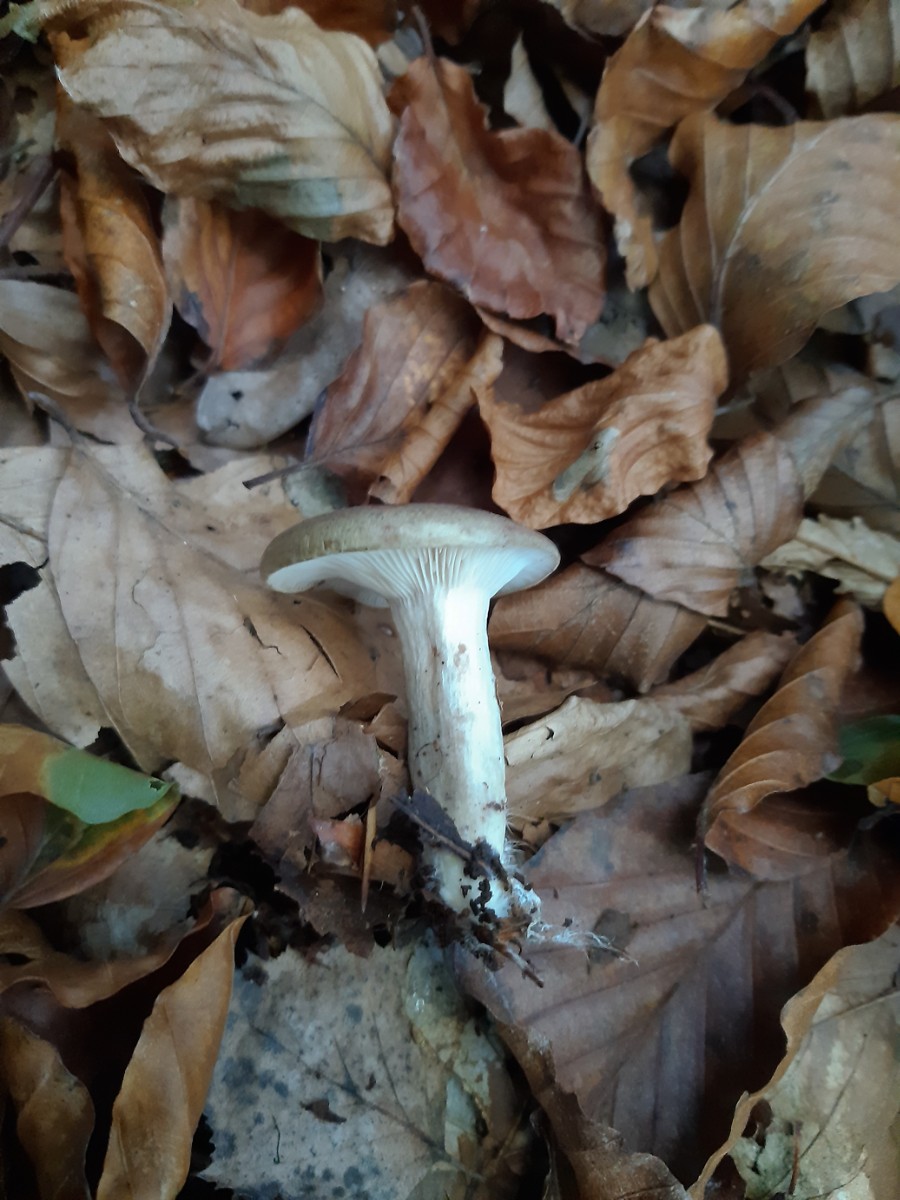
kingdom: Fungi
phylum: Basidiomycota
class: Agaricomycetes
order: Russulales
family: Russulaceae
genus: Lactarius
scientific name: Lactarius blennius
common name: dråbeplettet mælkehat
